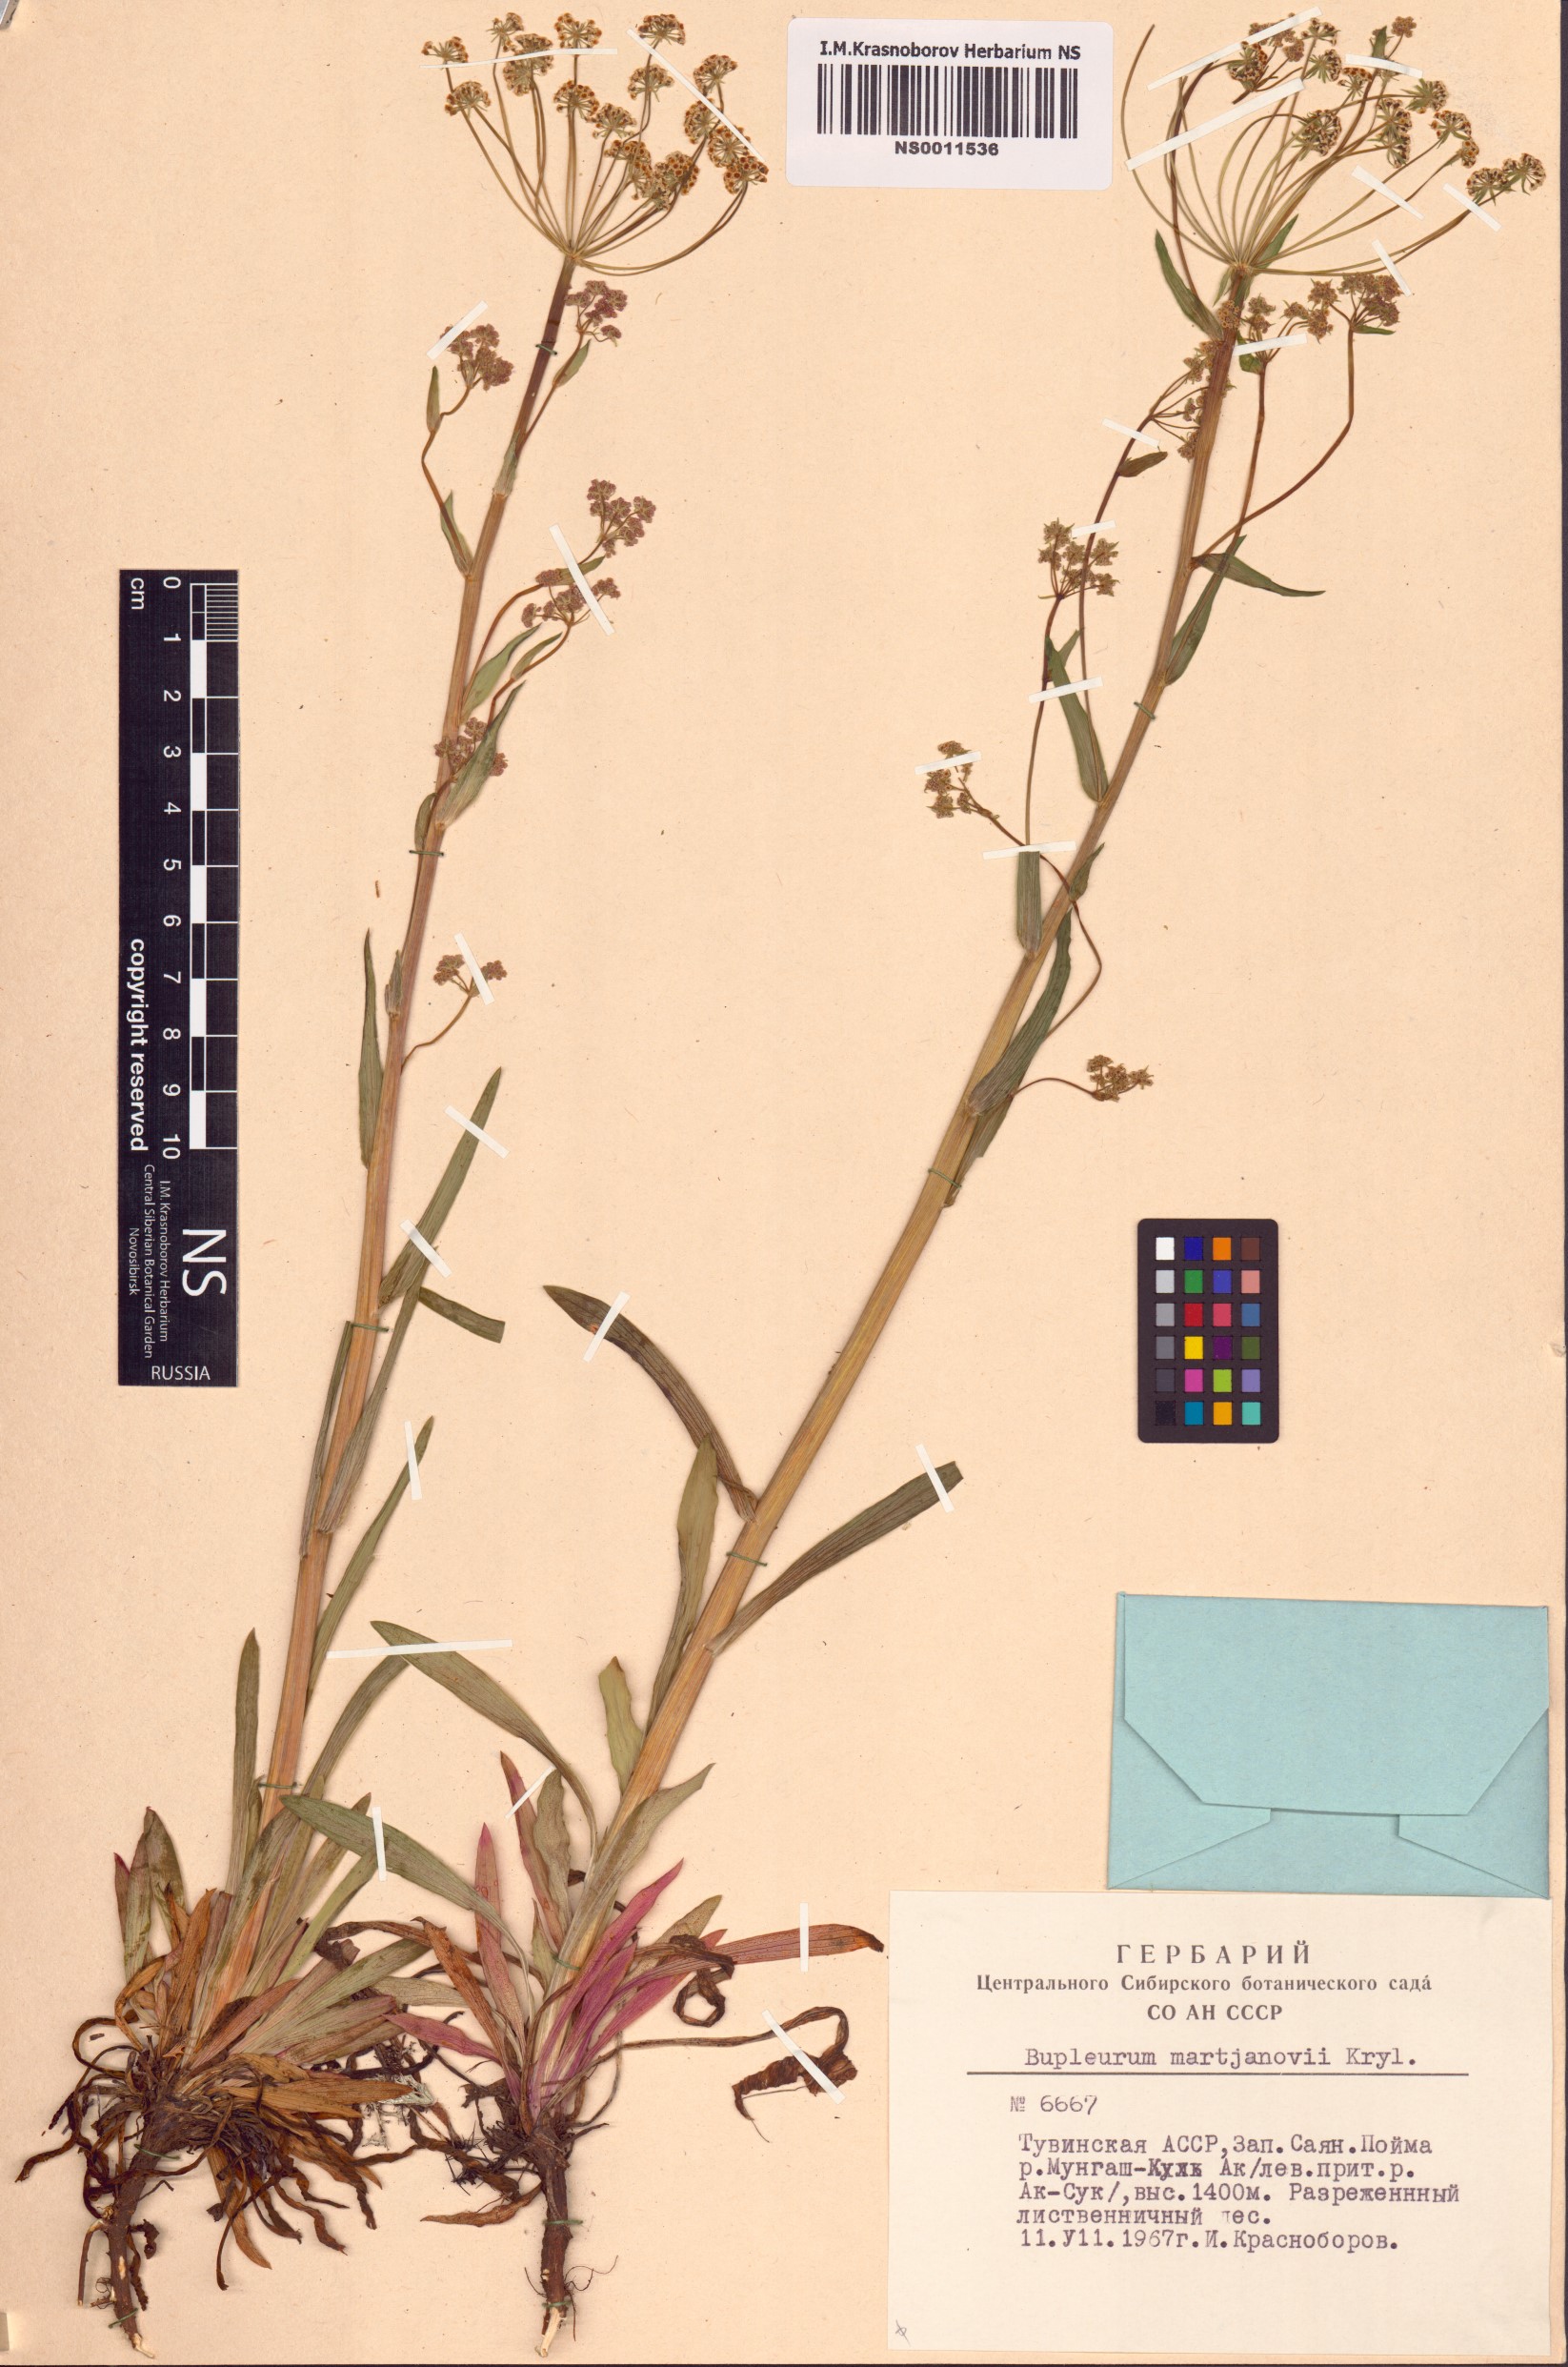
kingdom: Plantae
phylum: Tracheophyta
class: Magnoliopsida
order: Apiales
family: Apiaceae
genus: Bupleurum
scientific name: Bupleurum martjanovii
